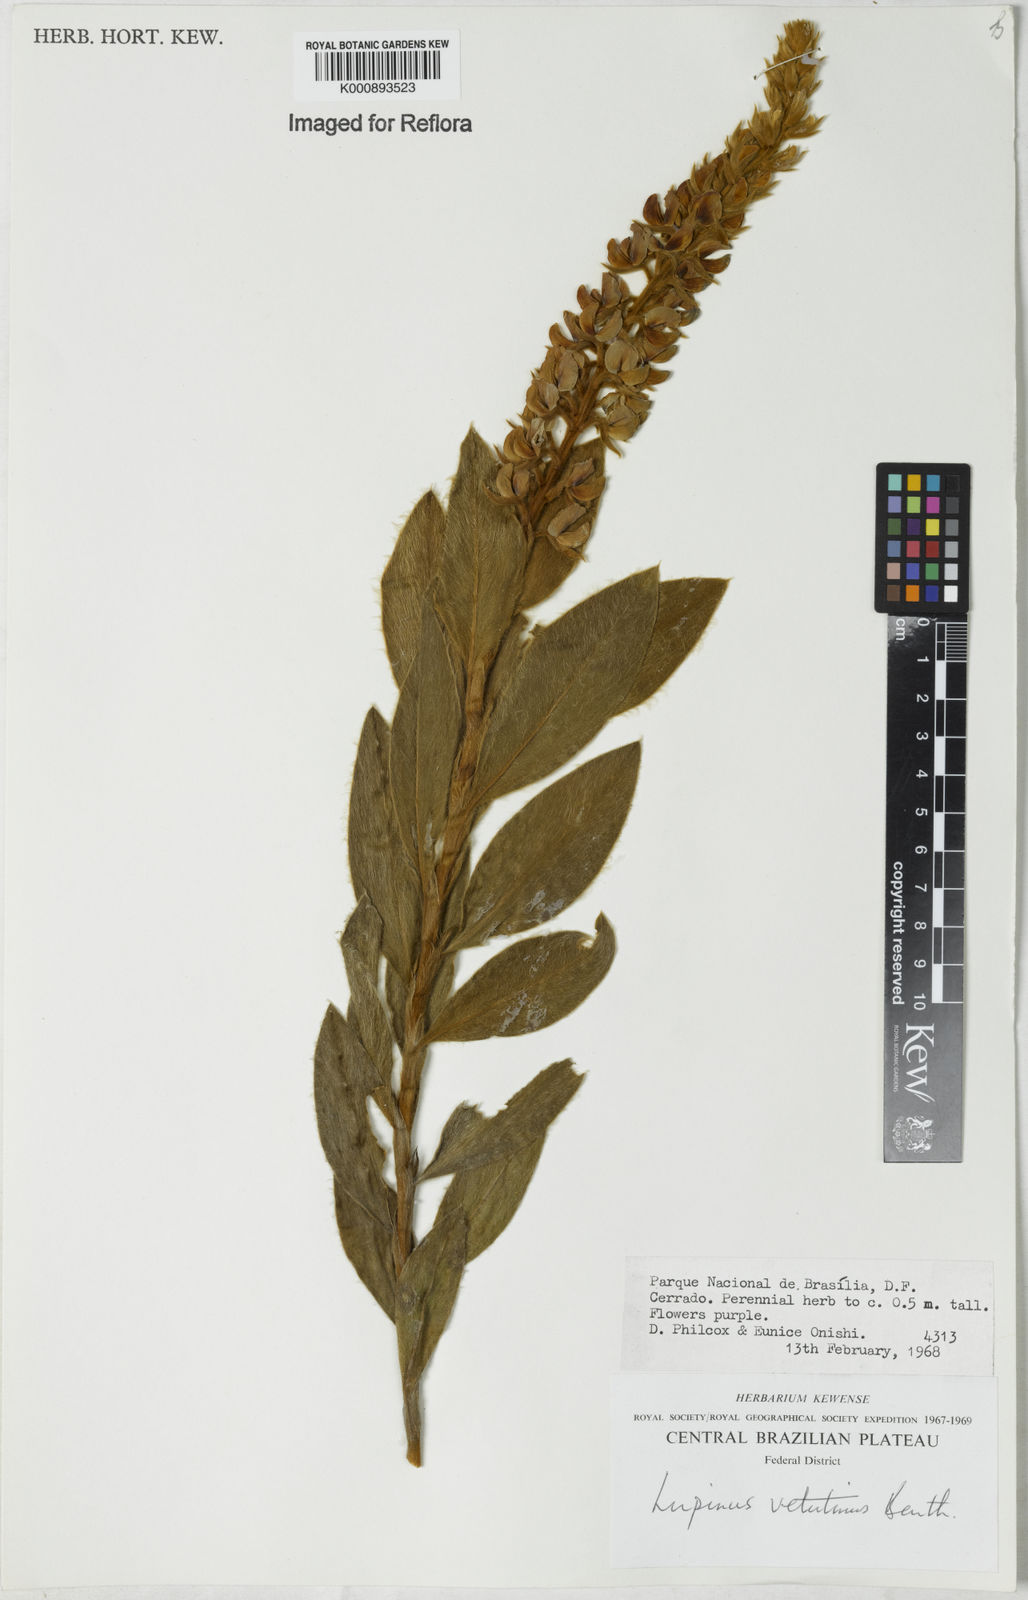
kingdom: Plantae
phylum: Tracheophyta
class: Magnoliopsida
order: Fabales
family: Fabaceae
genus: Lupinus
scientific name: Lupinus velutinus
